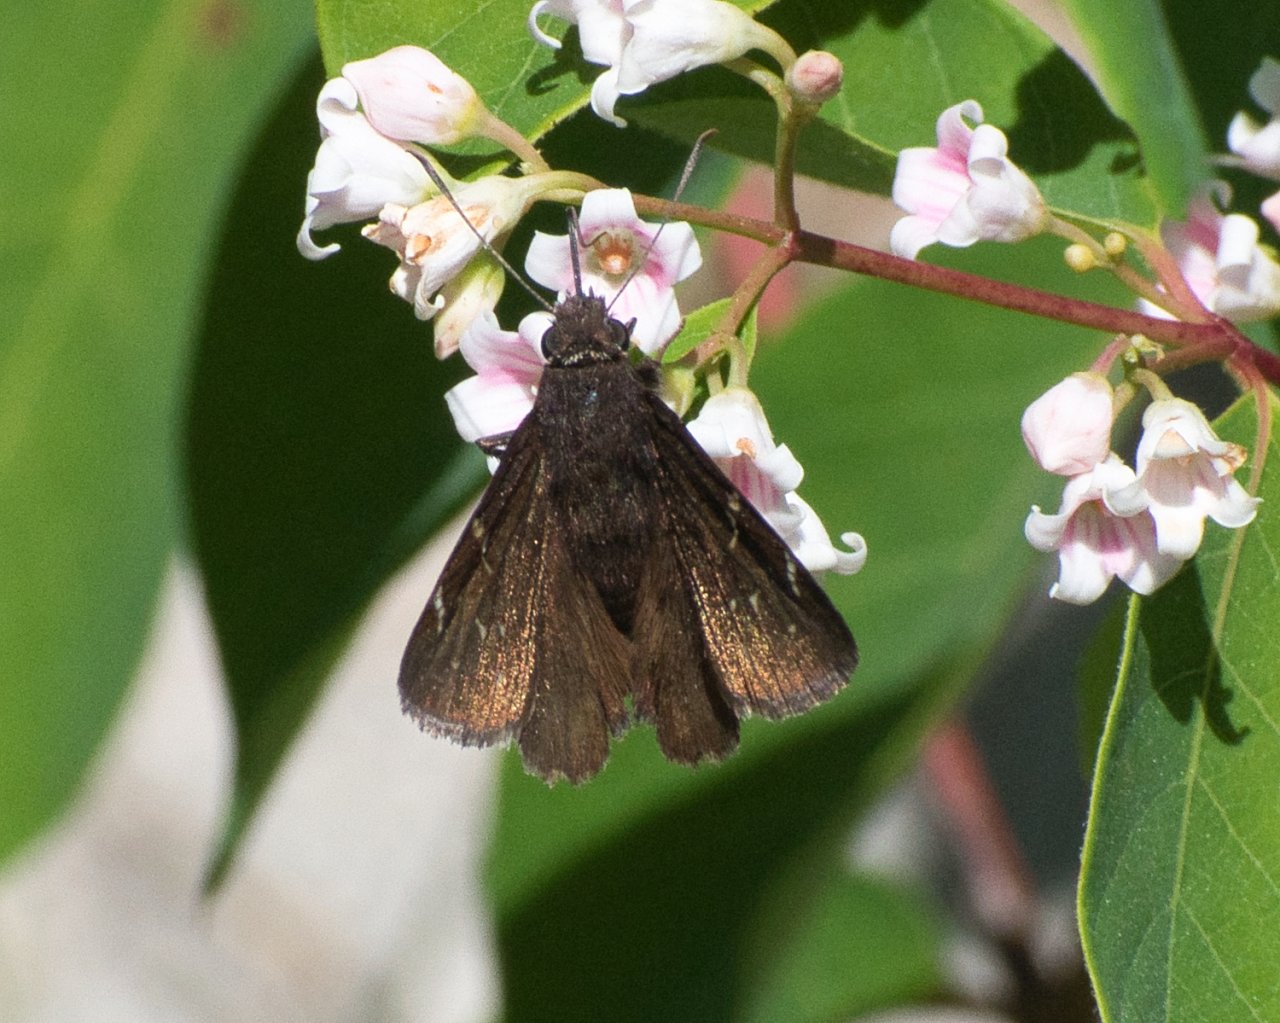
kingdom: Animalia
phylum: Arthropoda
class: Insecta
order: Lepidoptera
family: Hesperiidae
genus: Autochton
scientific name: Autochton
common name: Northern Cloudywing
